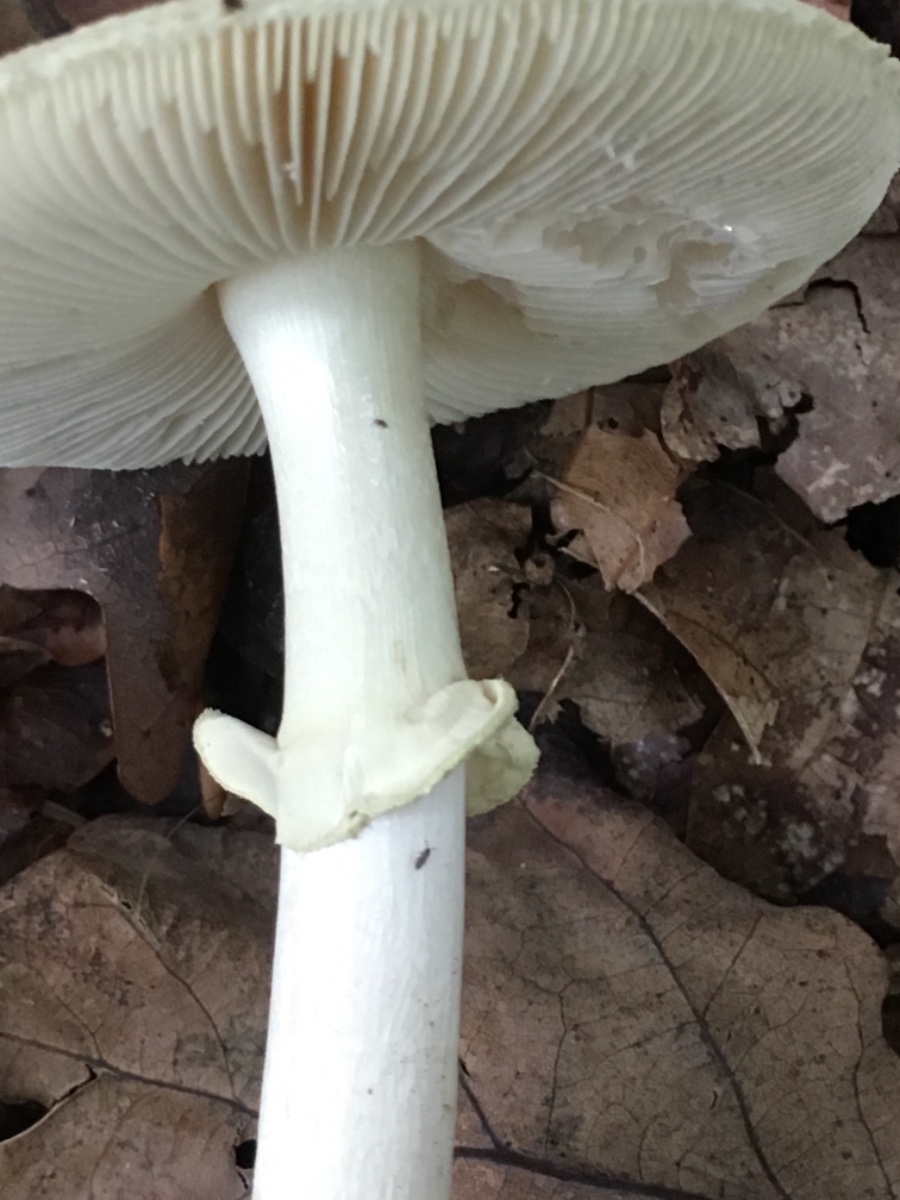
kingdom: Fungi
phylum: Basidiomycota
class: Agaricomycetes
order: Agaricales
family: Amanitaceae
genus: Amanita
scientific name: Amanita citrina
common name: False death-cap
